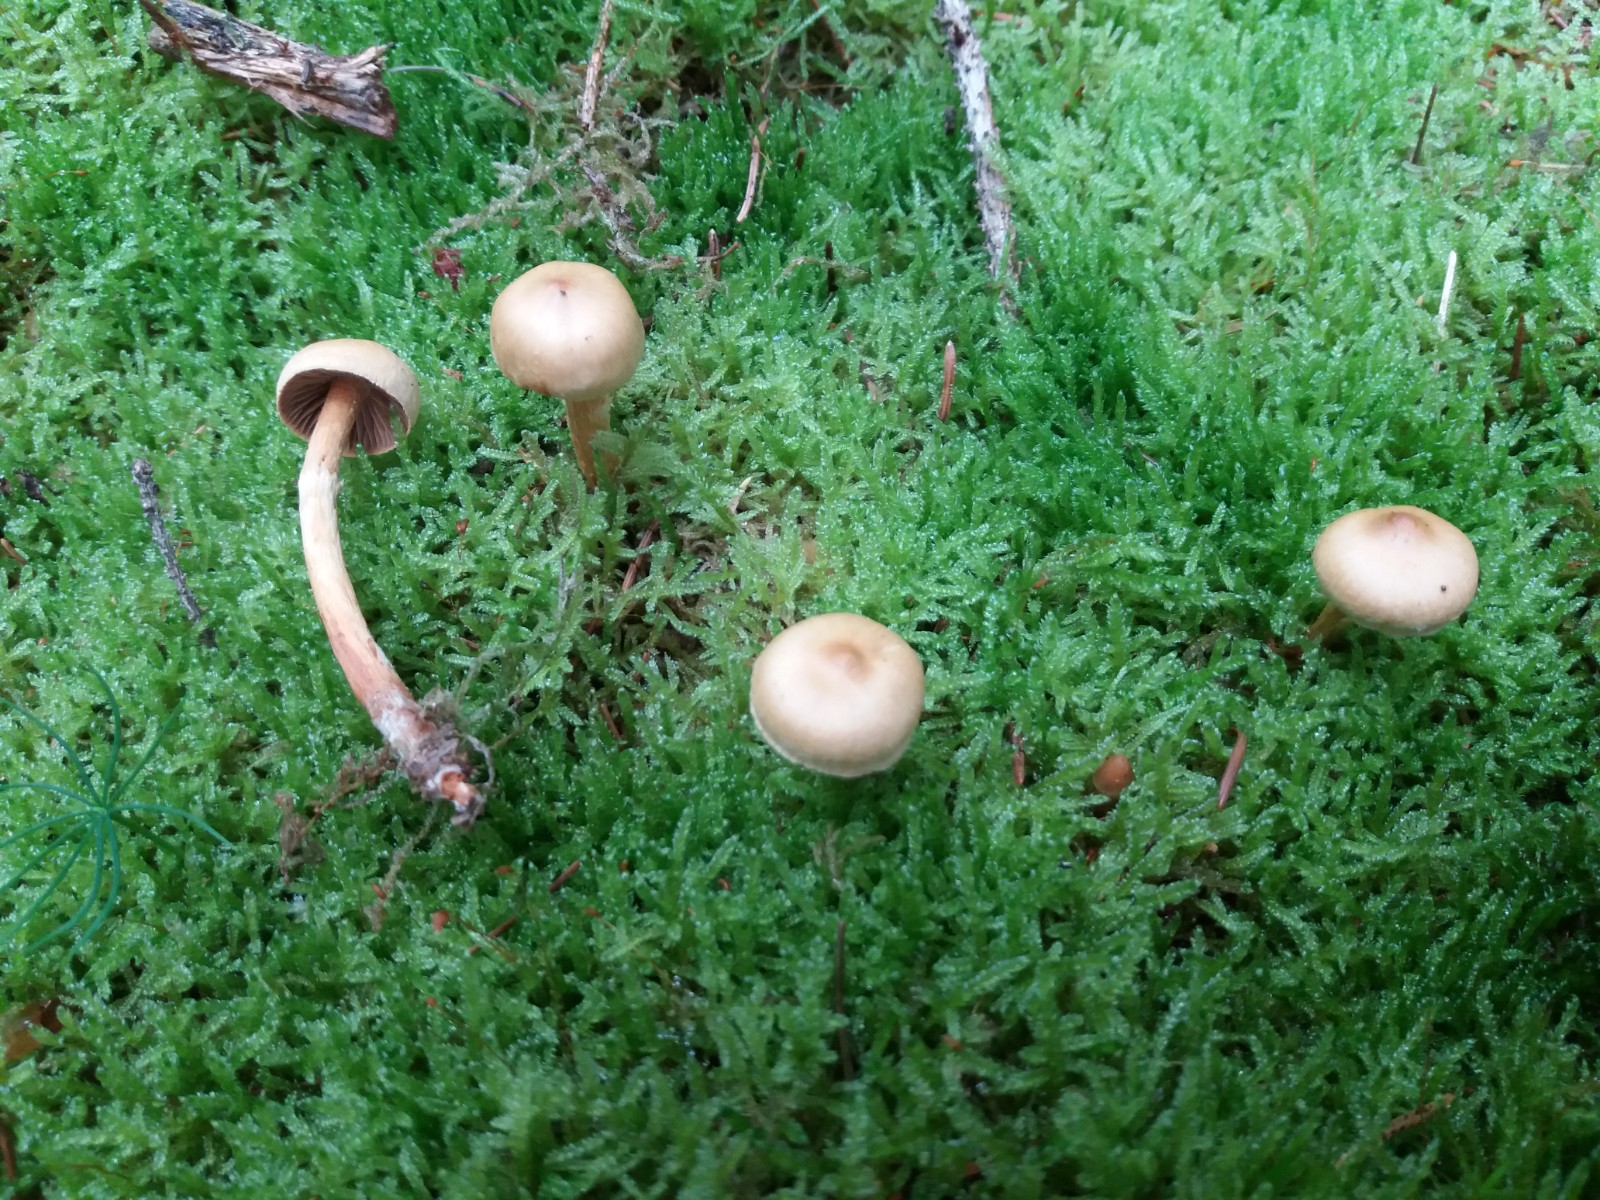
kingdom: Fungi
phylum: Basidiomycota
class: Agaricomycetes
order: Agaricales
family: Cortinariaceae
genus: Cortinarius
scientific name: Cortinarius gentilis
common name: bæltet slørhat
